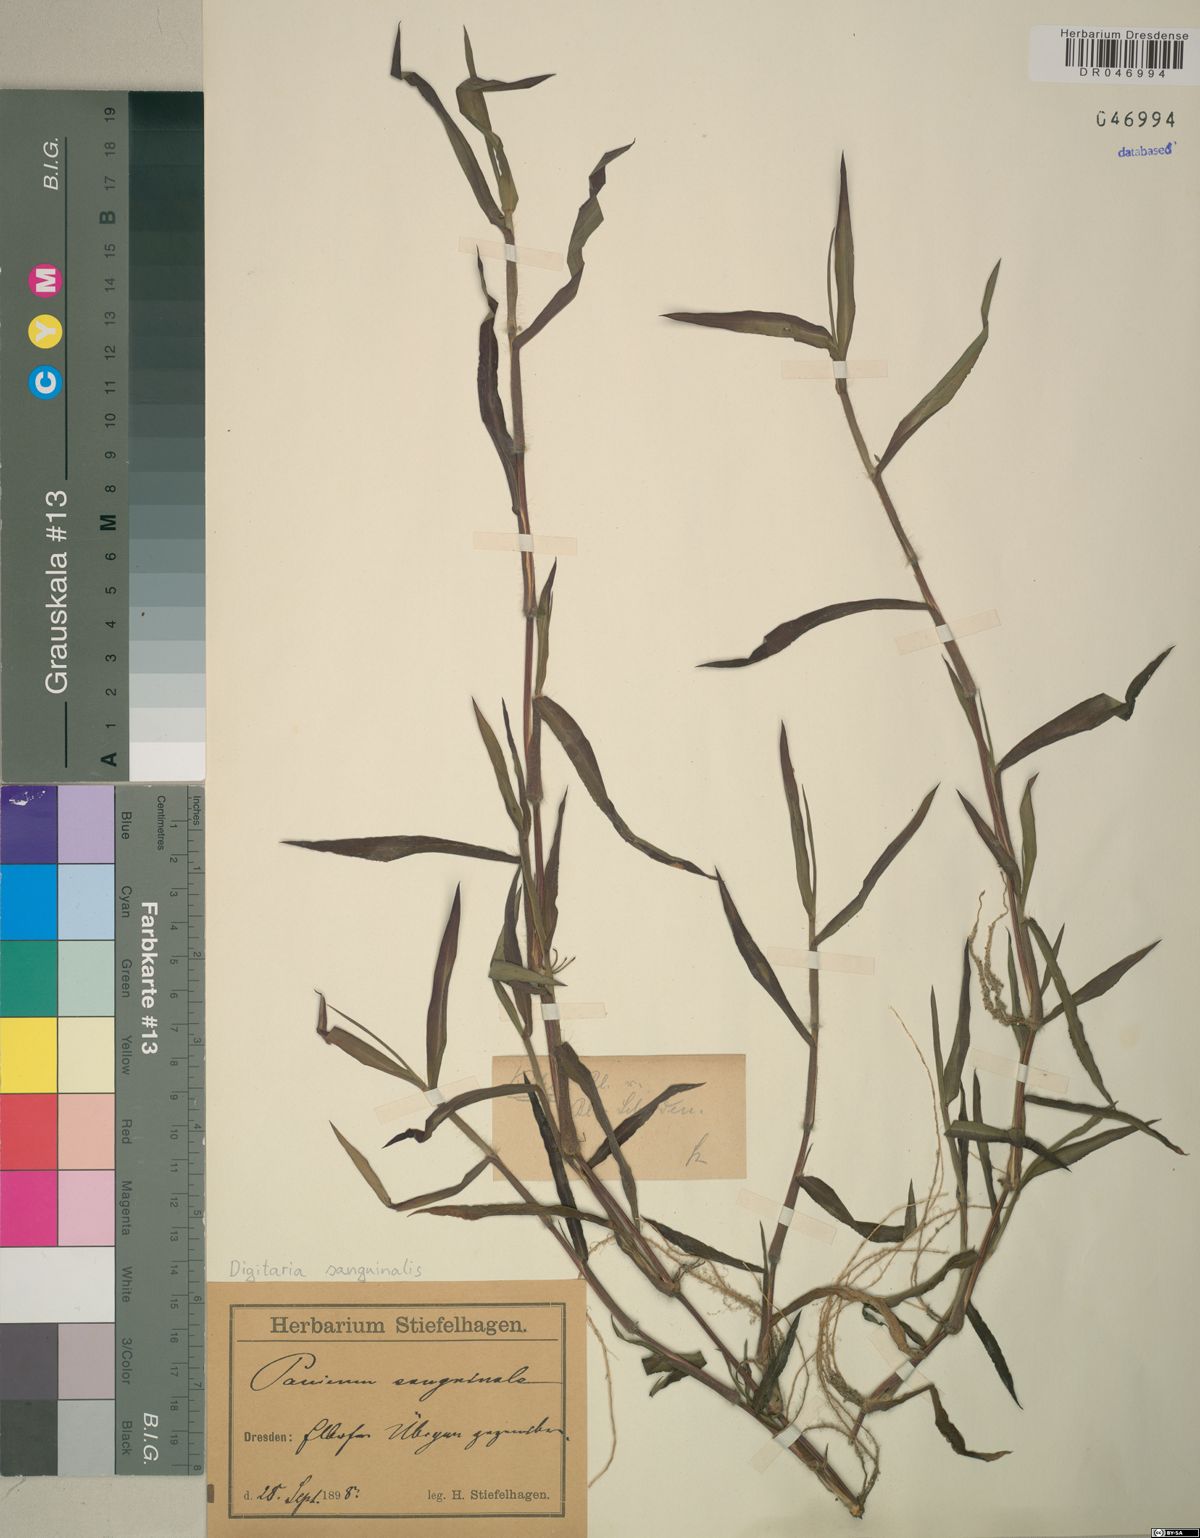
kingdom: Plantae
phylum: Tracheophyta
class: Liliopsida
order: Poales
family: Poaceae
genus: Digitaria
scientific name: Digitaria sanguinalis
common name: Hairy crabgrass
